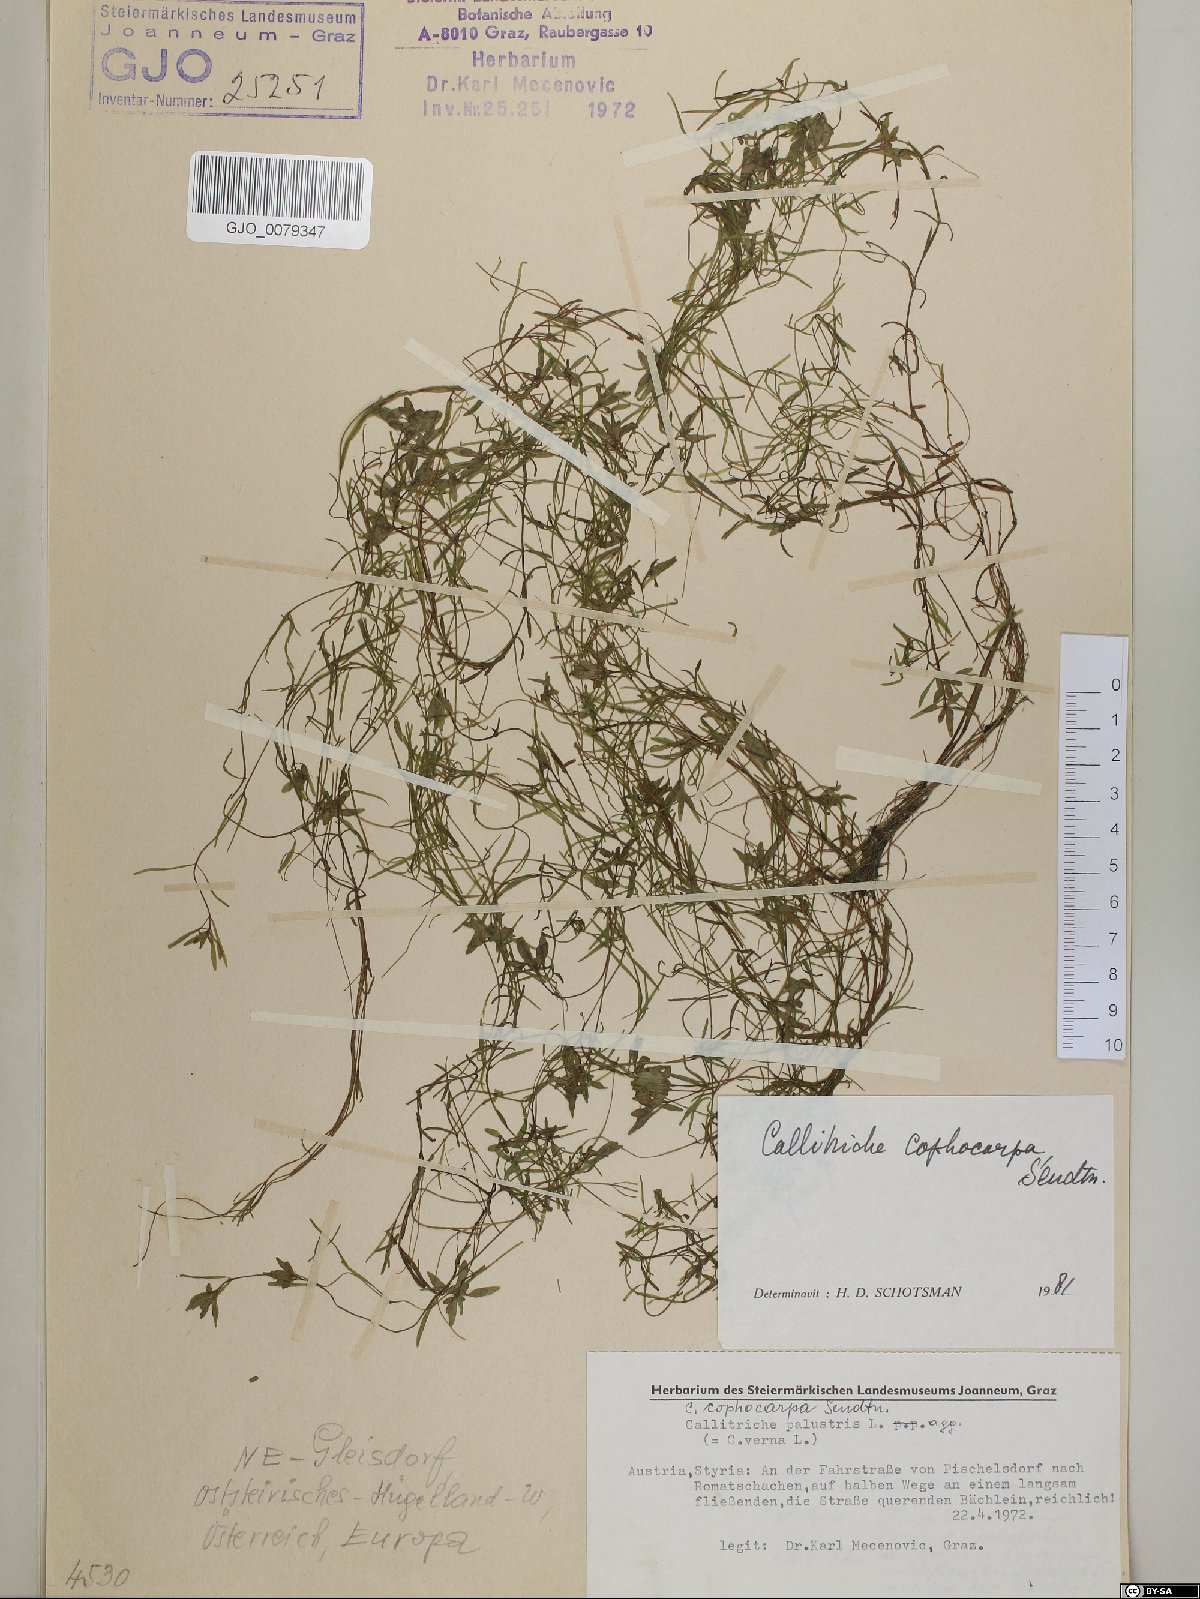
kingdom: Plantae
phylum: Tracheophyta
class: Magnoliopsida
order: Lamiales
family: Plantaginaceae
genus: Callitriche
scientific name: Callitriche cophocarpa
